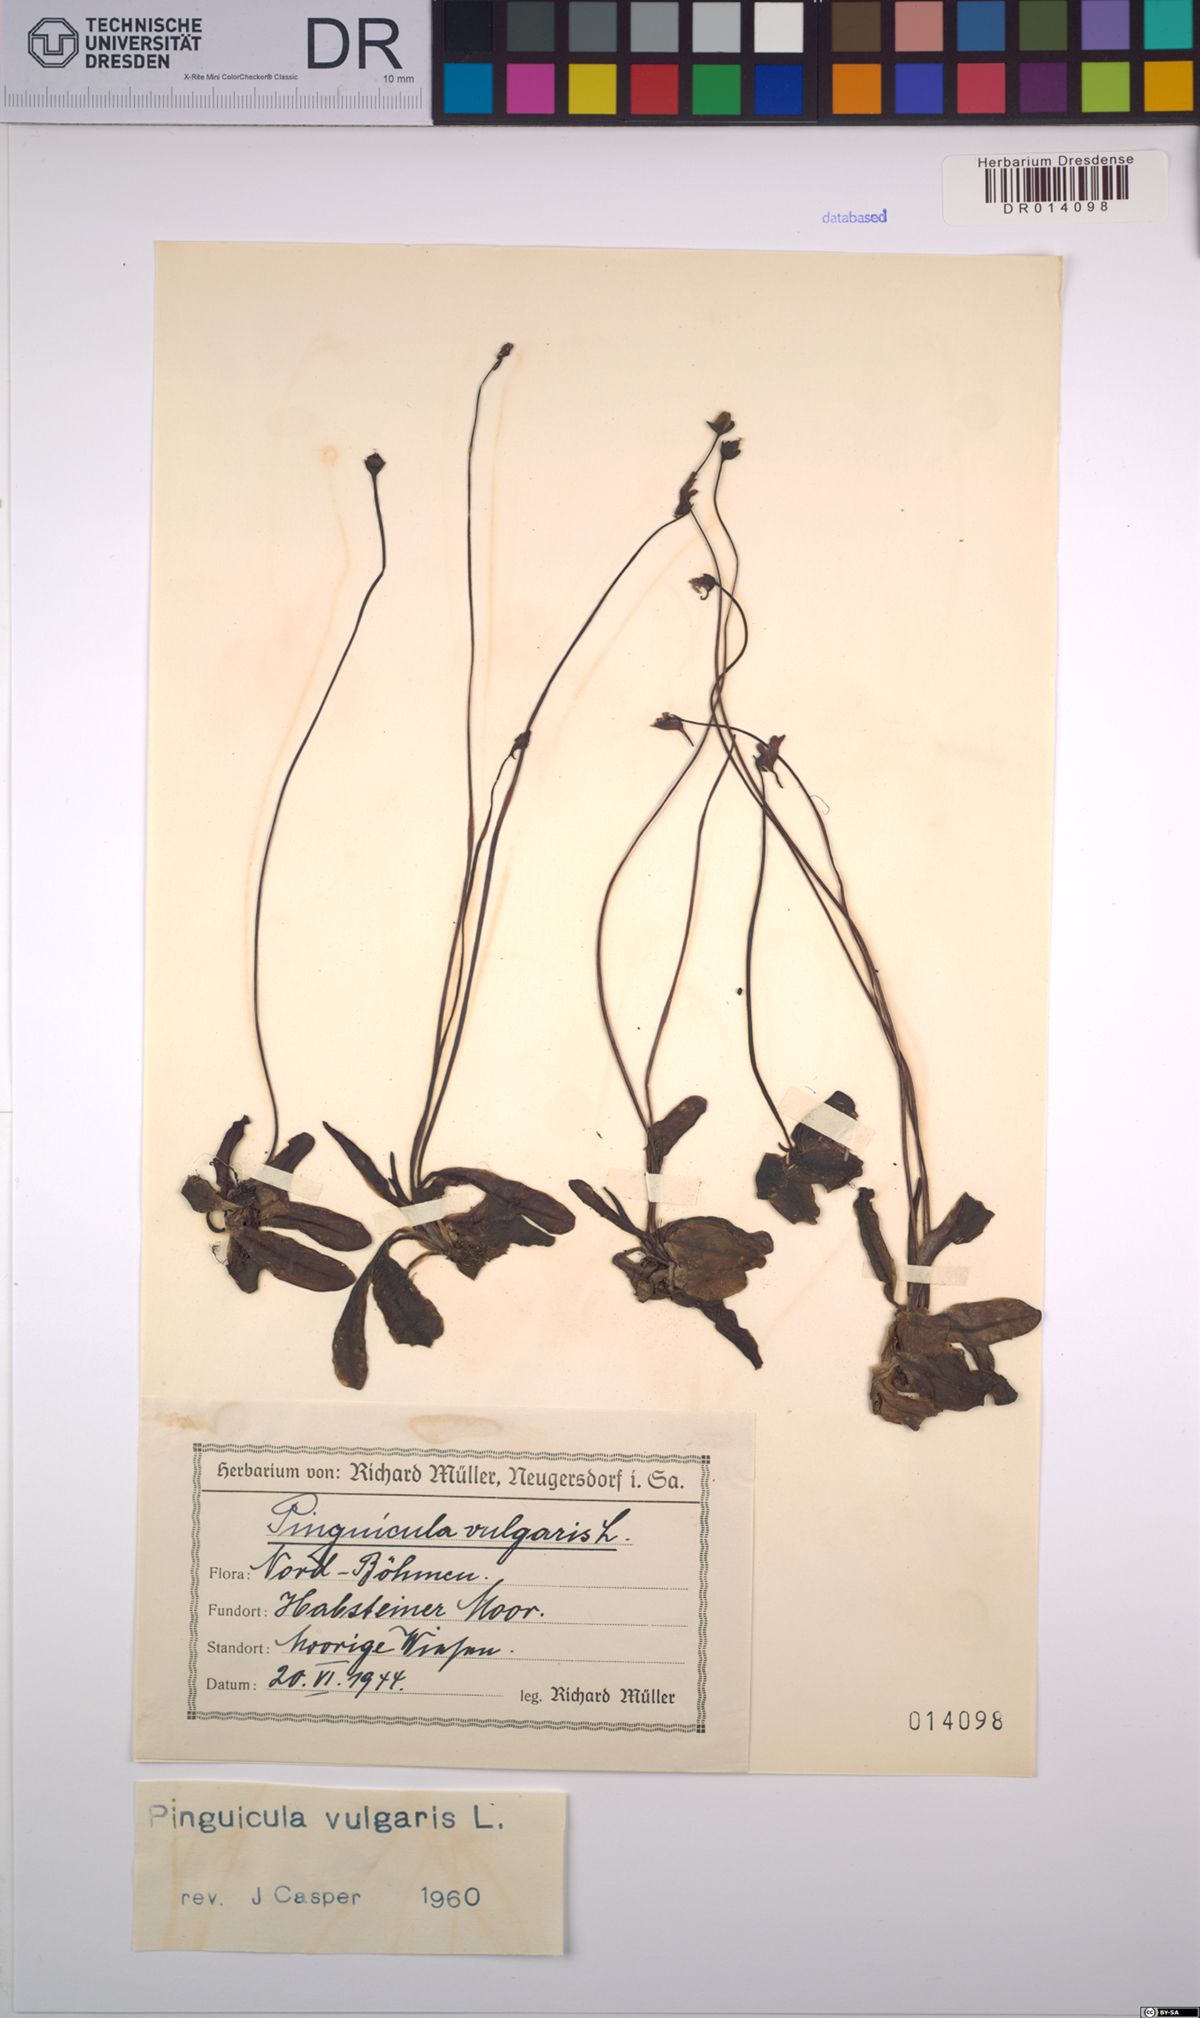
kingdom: Plantae
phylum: Tracheophyta
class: Magnoliopsida
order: Lamiales
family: Lentibulariaceae
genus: Pinguicula
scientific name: Pinguicula vulgaris
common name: Common butterwort
